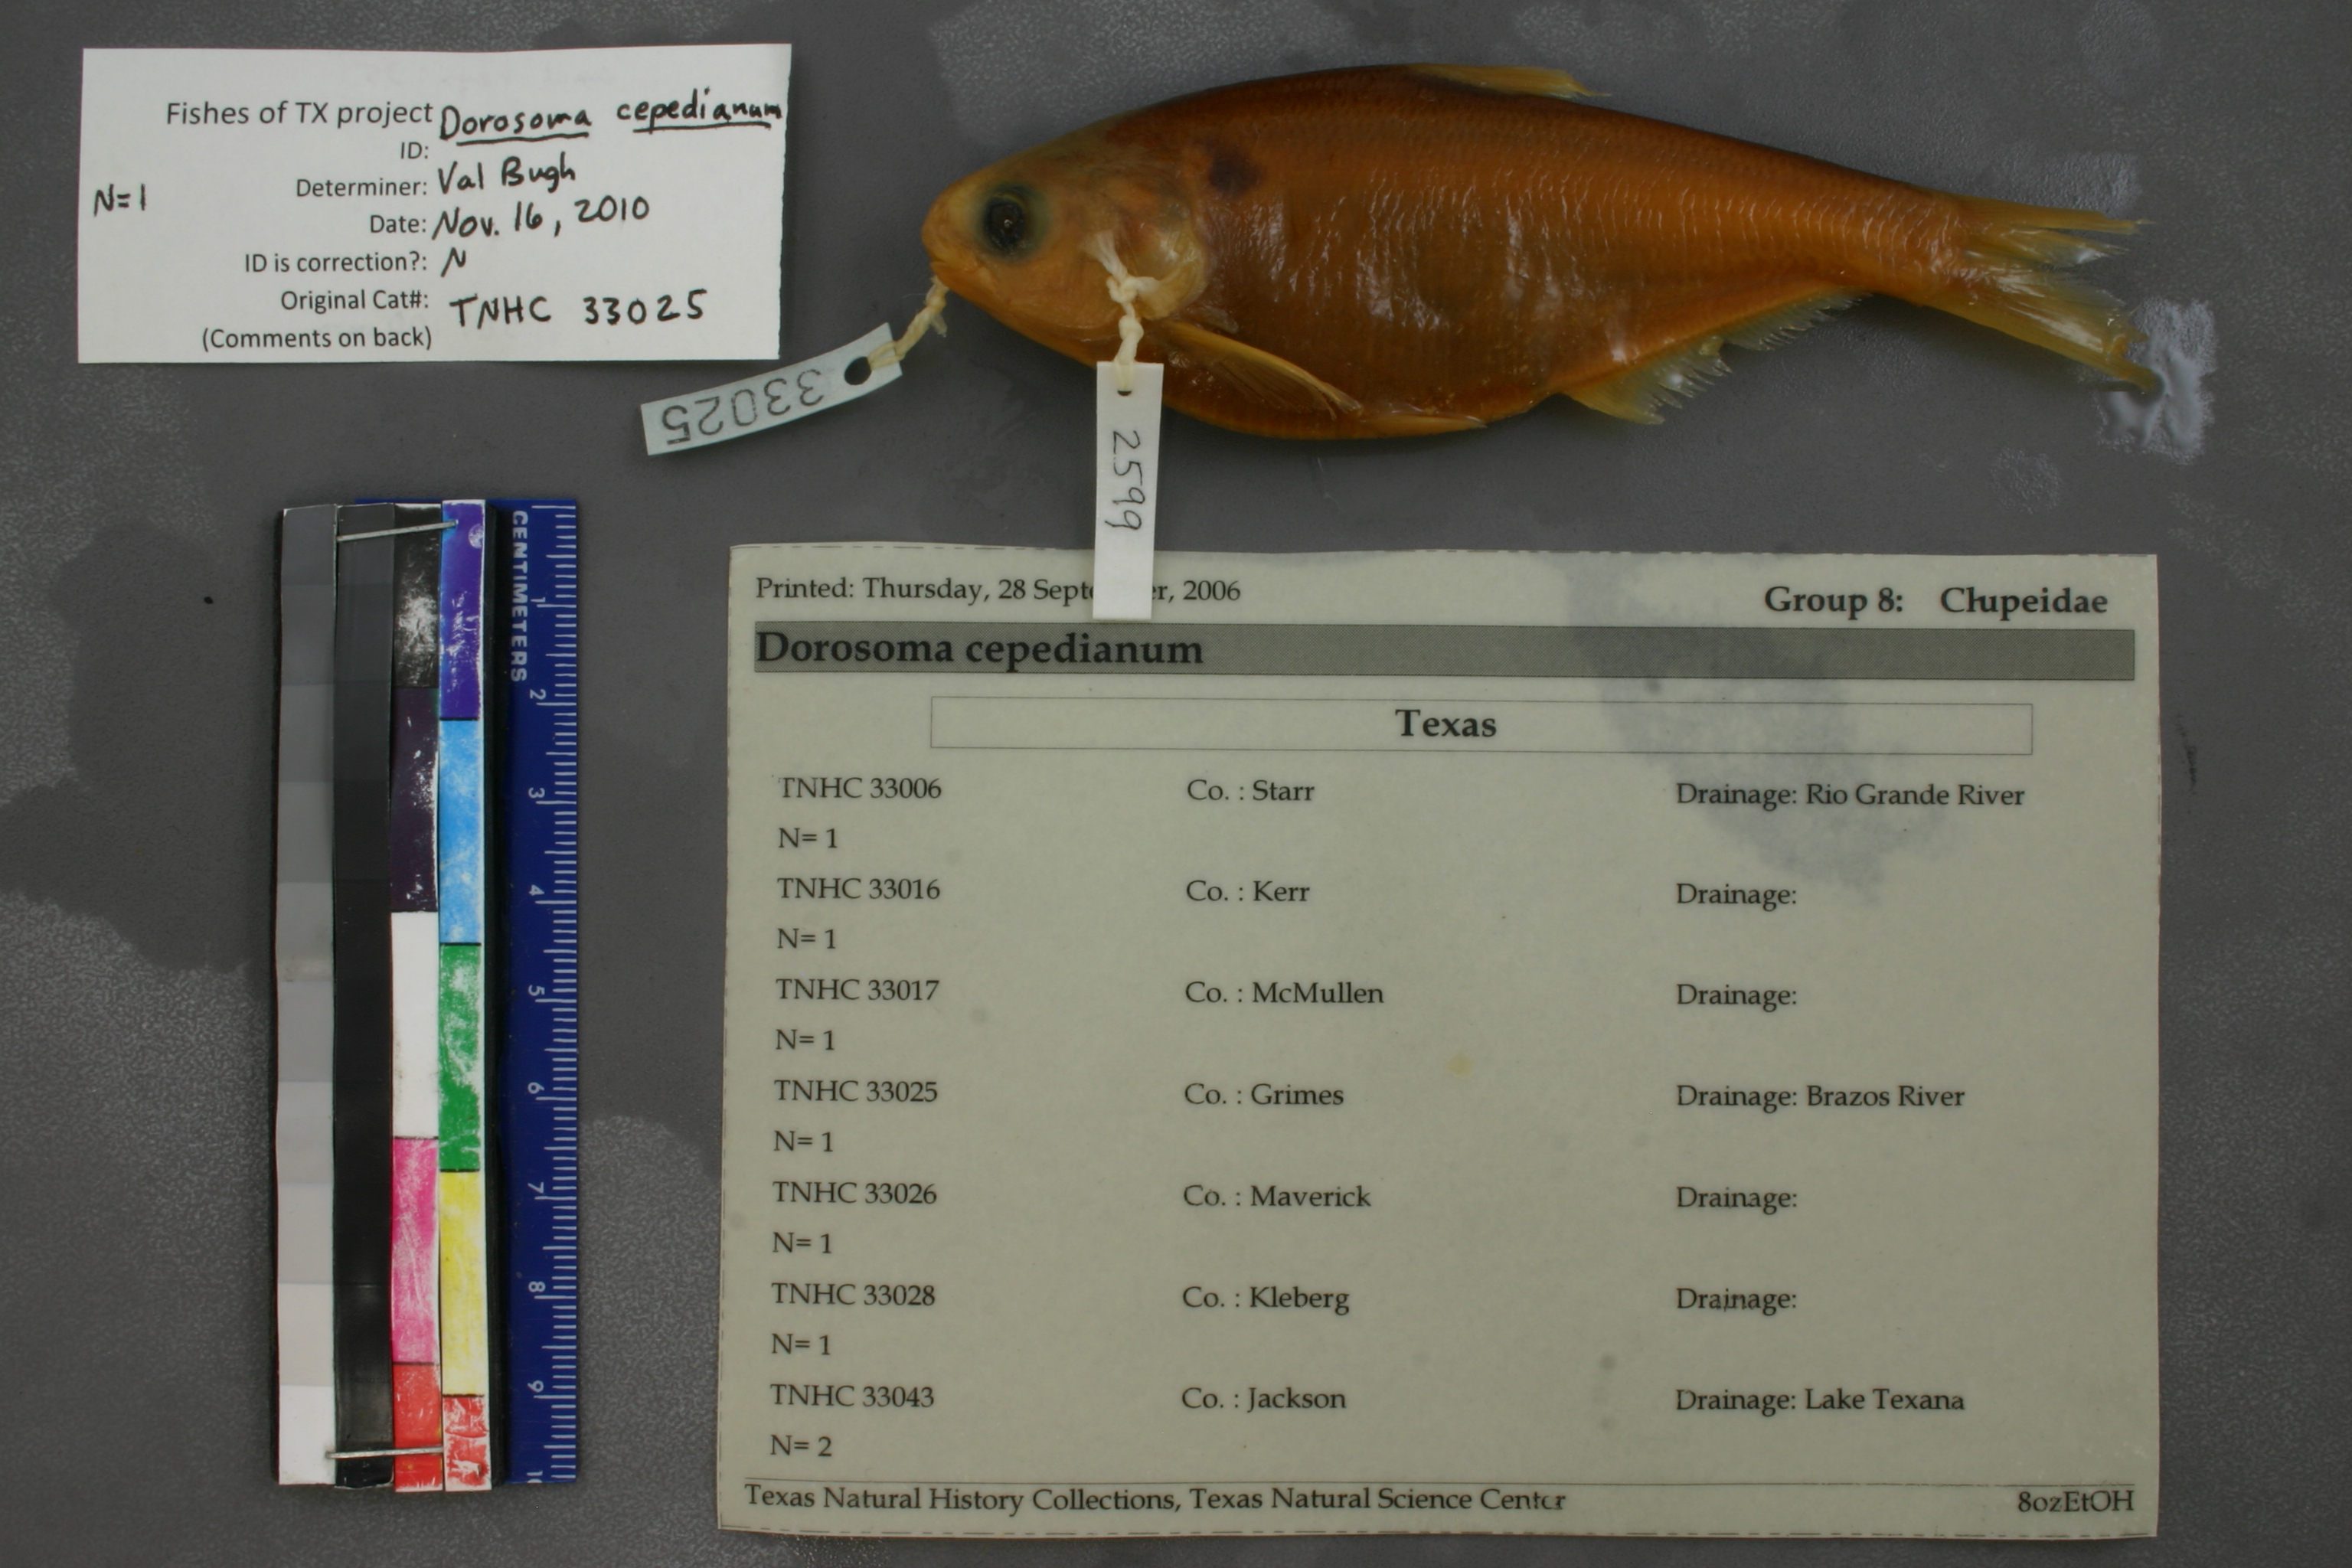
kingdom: Animalia
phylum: Chordata
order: Clupeiformes
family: Clupeidae
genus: Dorosoma
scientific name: Dorosoma cepedianum
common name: Gizzard shad
